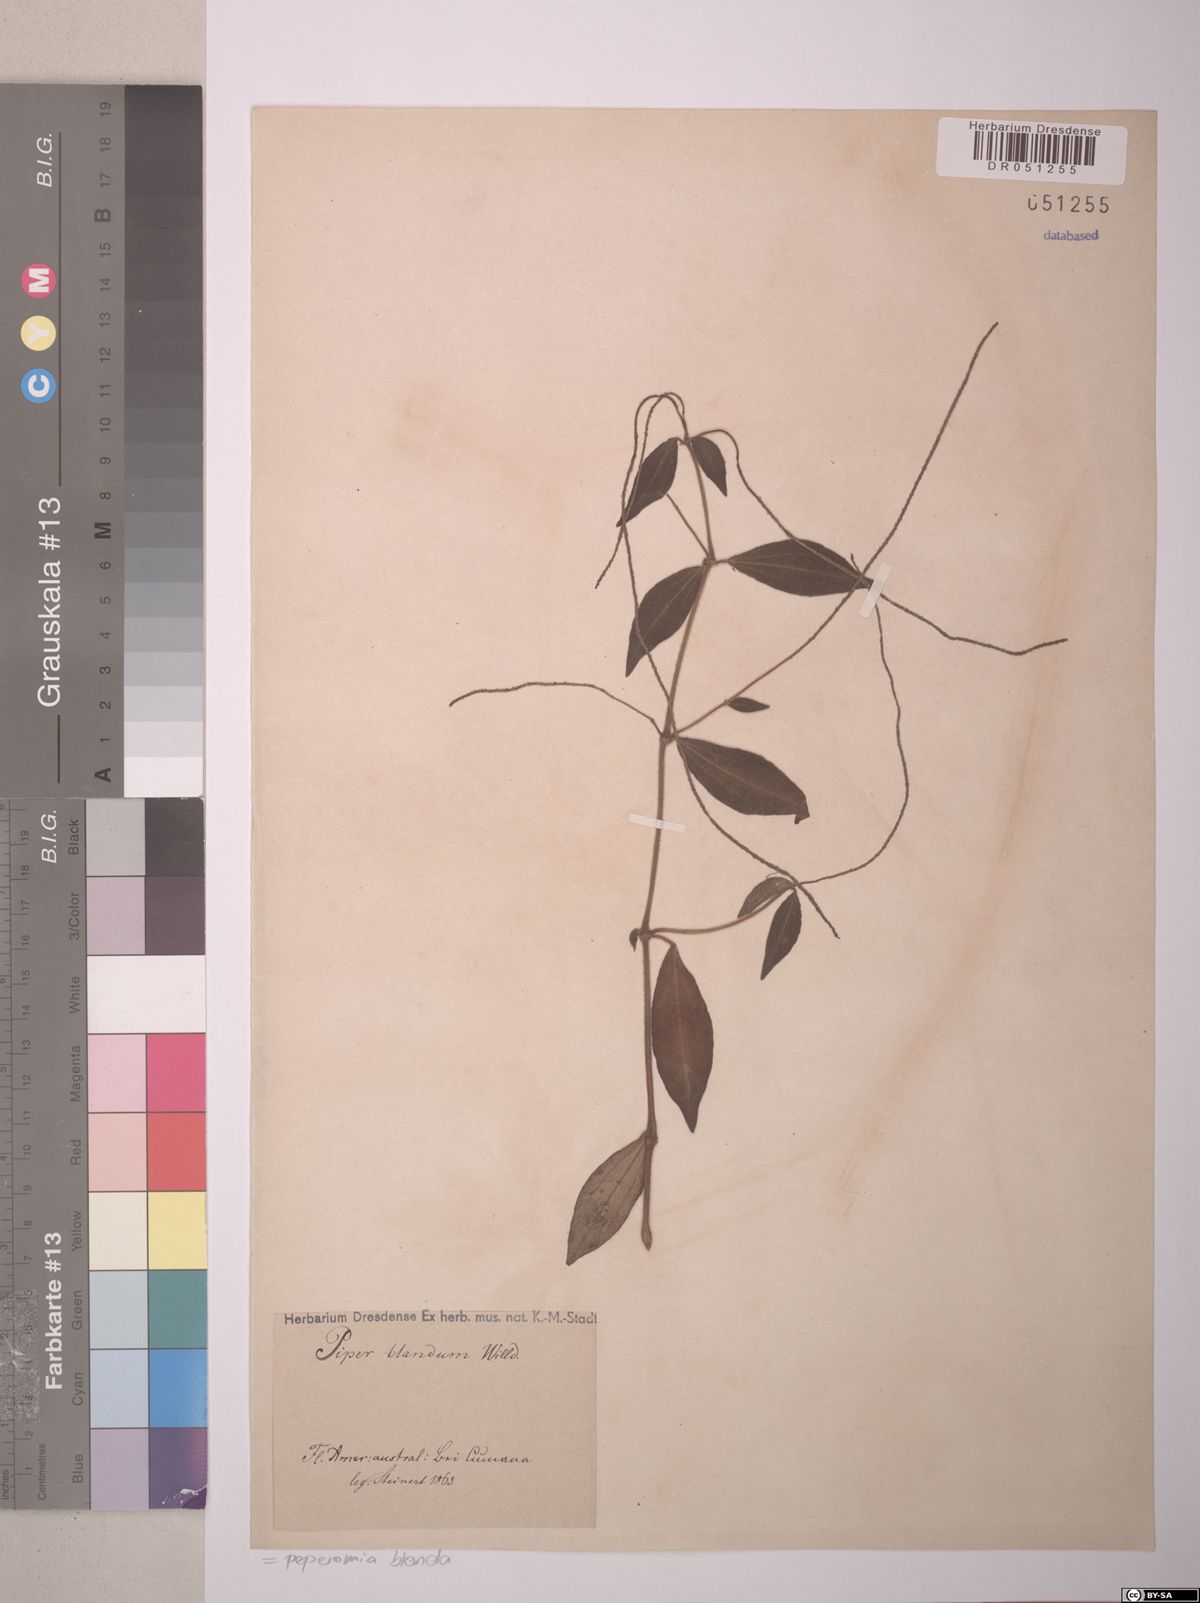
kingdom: Plantae
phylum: Tracheophyta
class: Magnoliopsida
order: Piperales
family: Piperaceae
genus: Peperomia
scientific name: Peperomia blanda
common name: Arid-land peperomia
